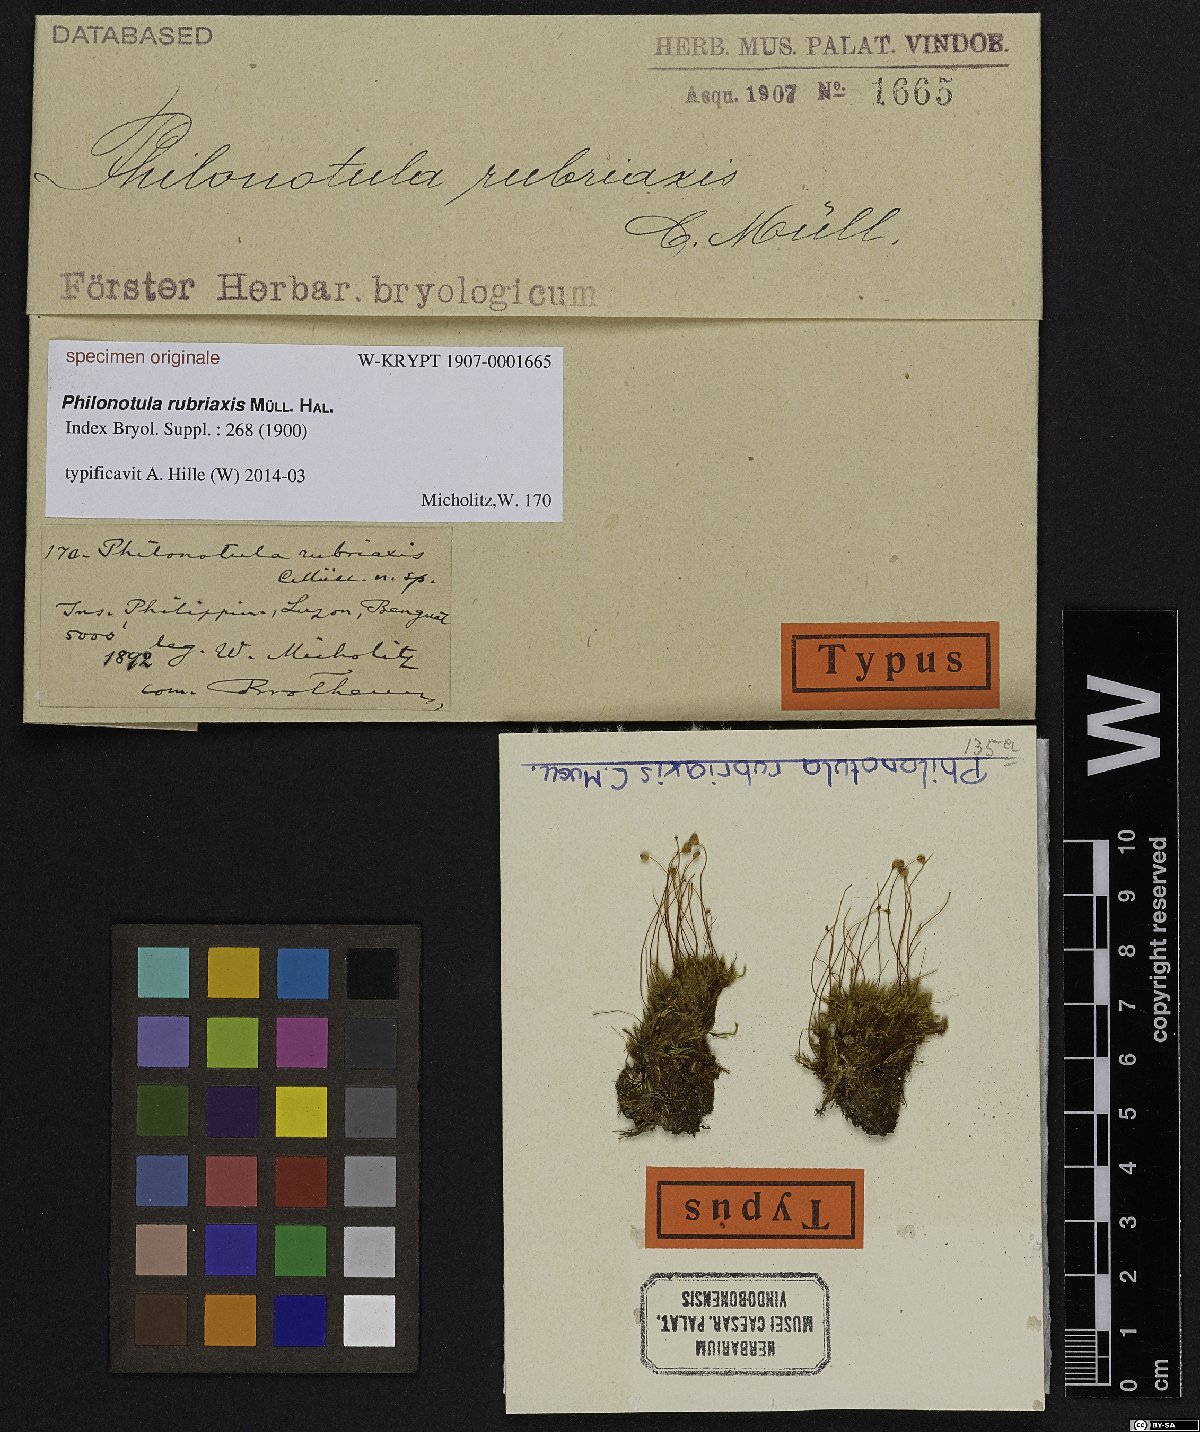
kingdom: Plantae
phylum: Bryophyta
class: Bryopsida
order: Bartramiales
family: Bartramiaceae
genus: Philonotis
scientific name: Philonotis
